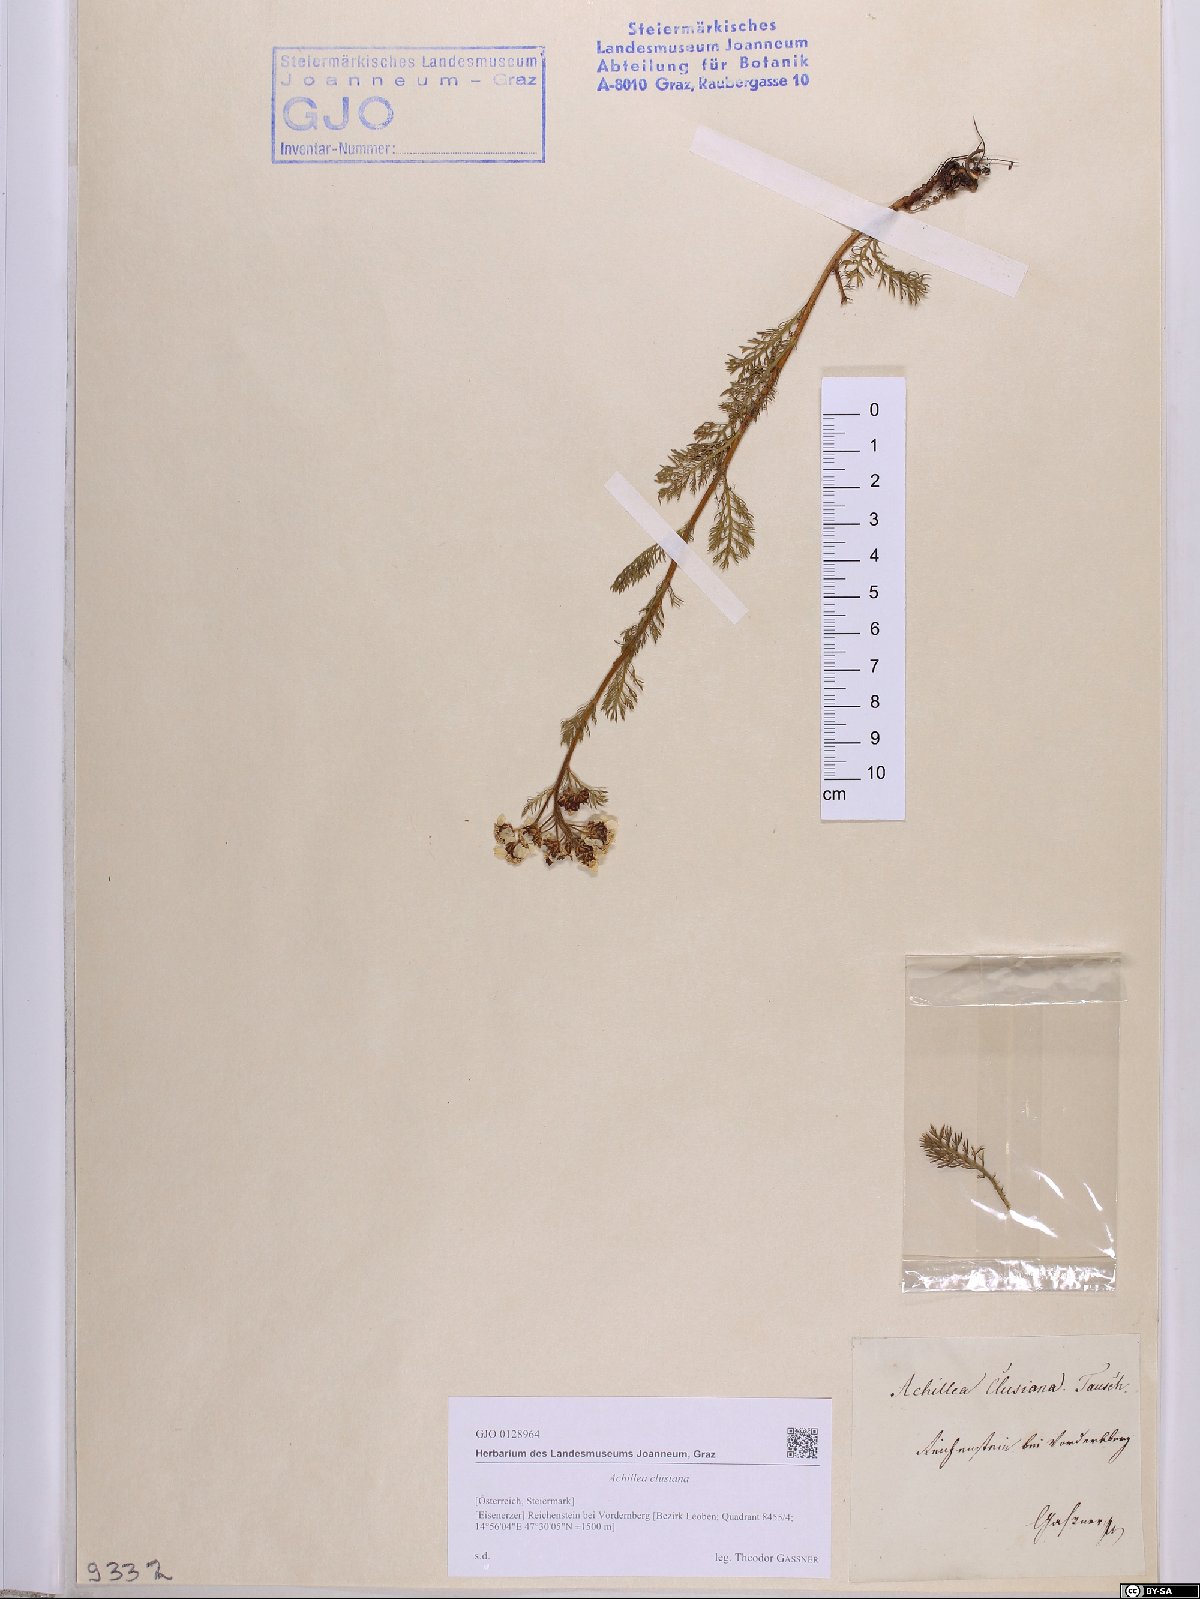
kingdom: Plantae
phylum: Tracheophyta
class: Magnoliopsida
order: Asterales
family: Asteraceae
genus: Achillea
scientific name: Achillea clusiana
